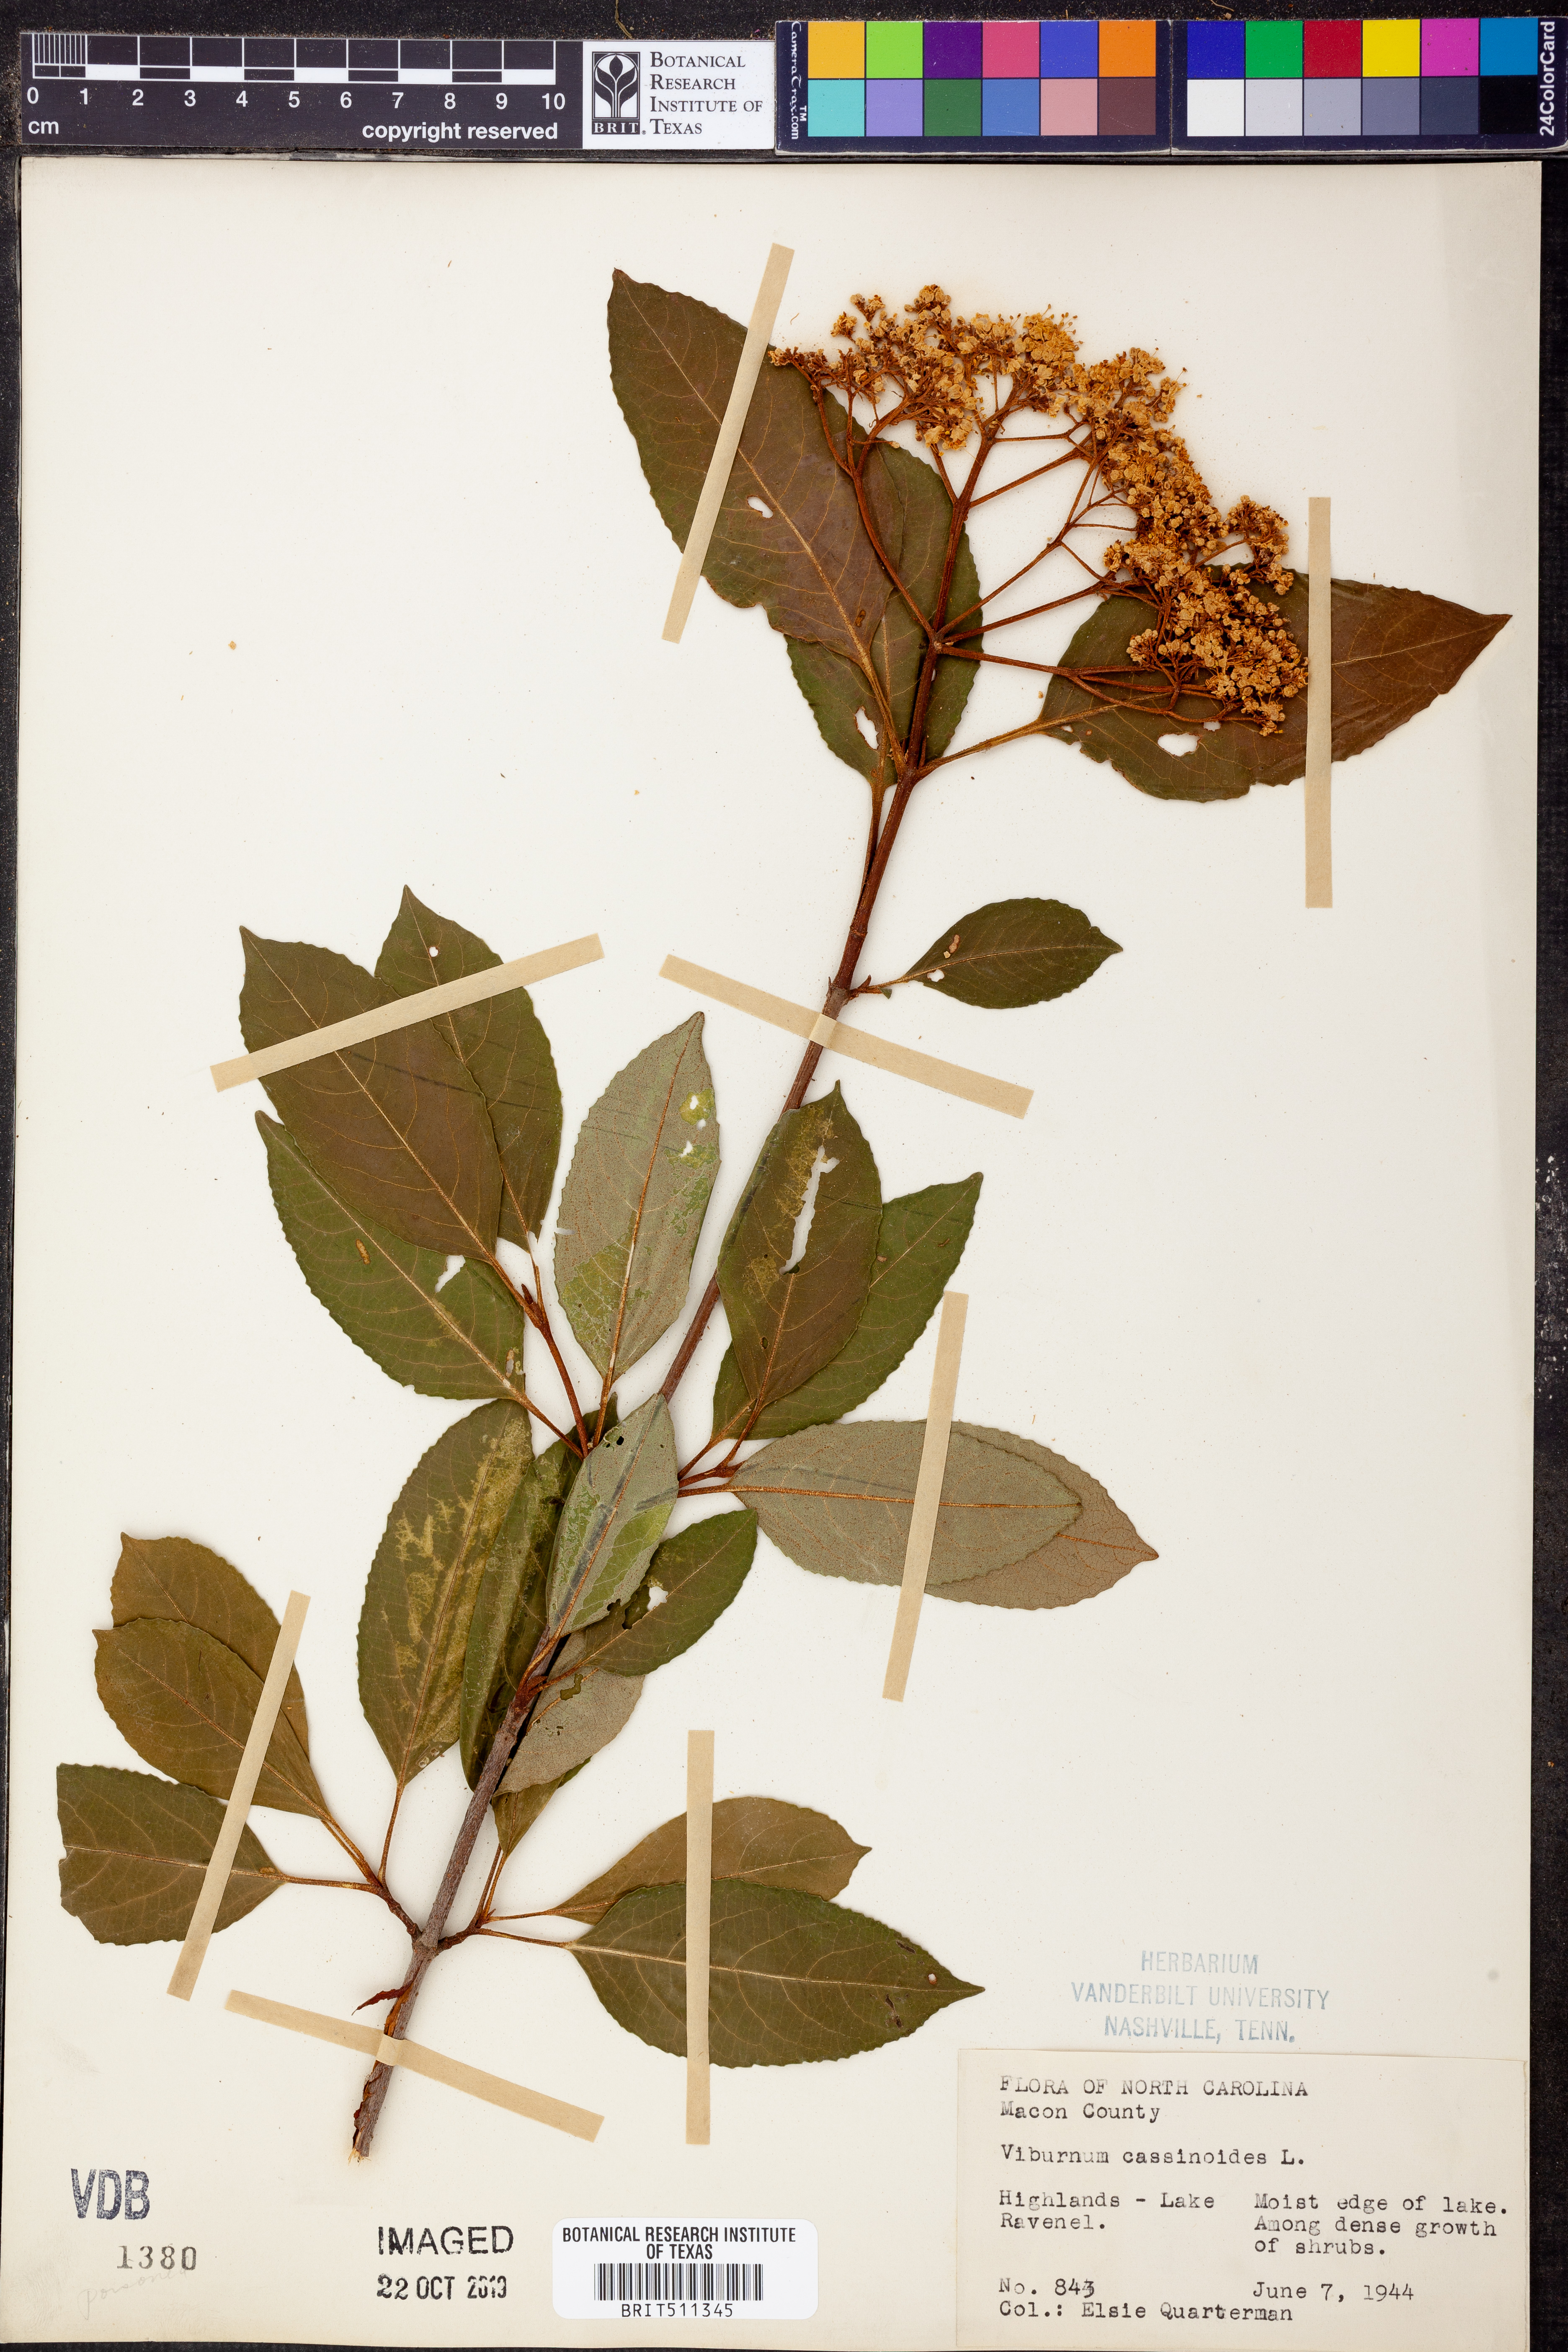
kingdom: Plantae
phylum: Tracheophyta
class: Magnoliopsida
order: Dipsacales
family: Viburnaceae
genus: Viburnum
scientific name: Viburnum cassinoides
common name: Swamp haw
